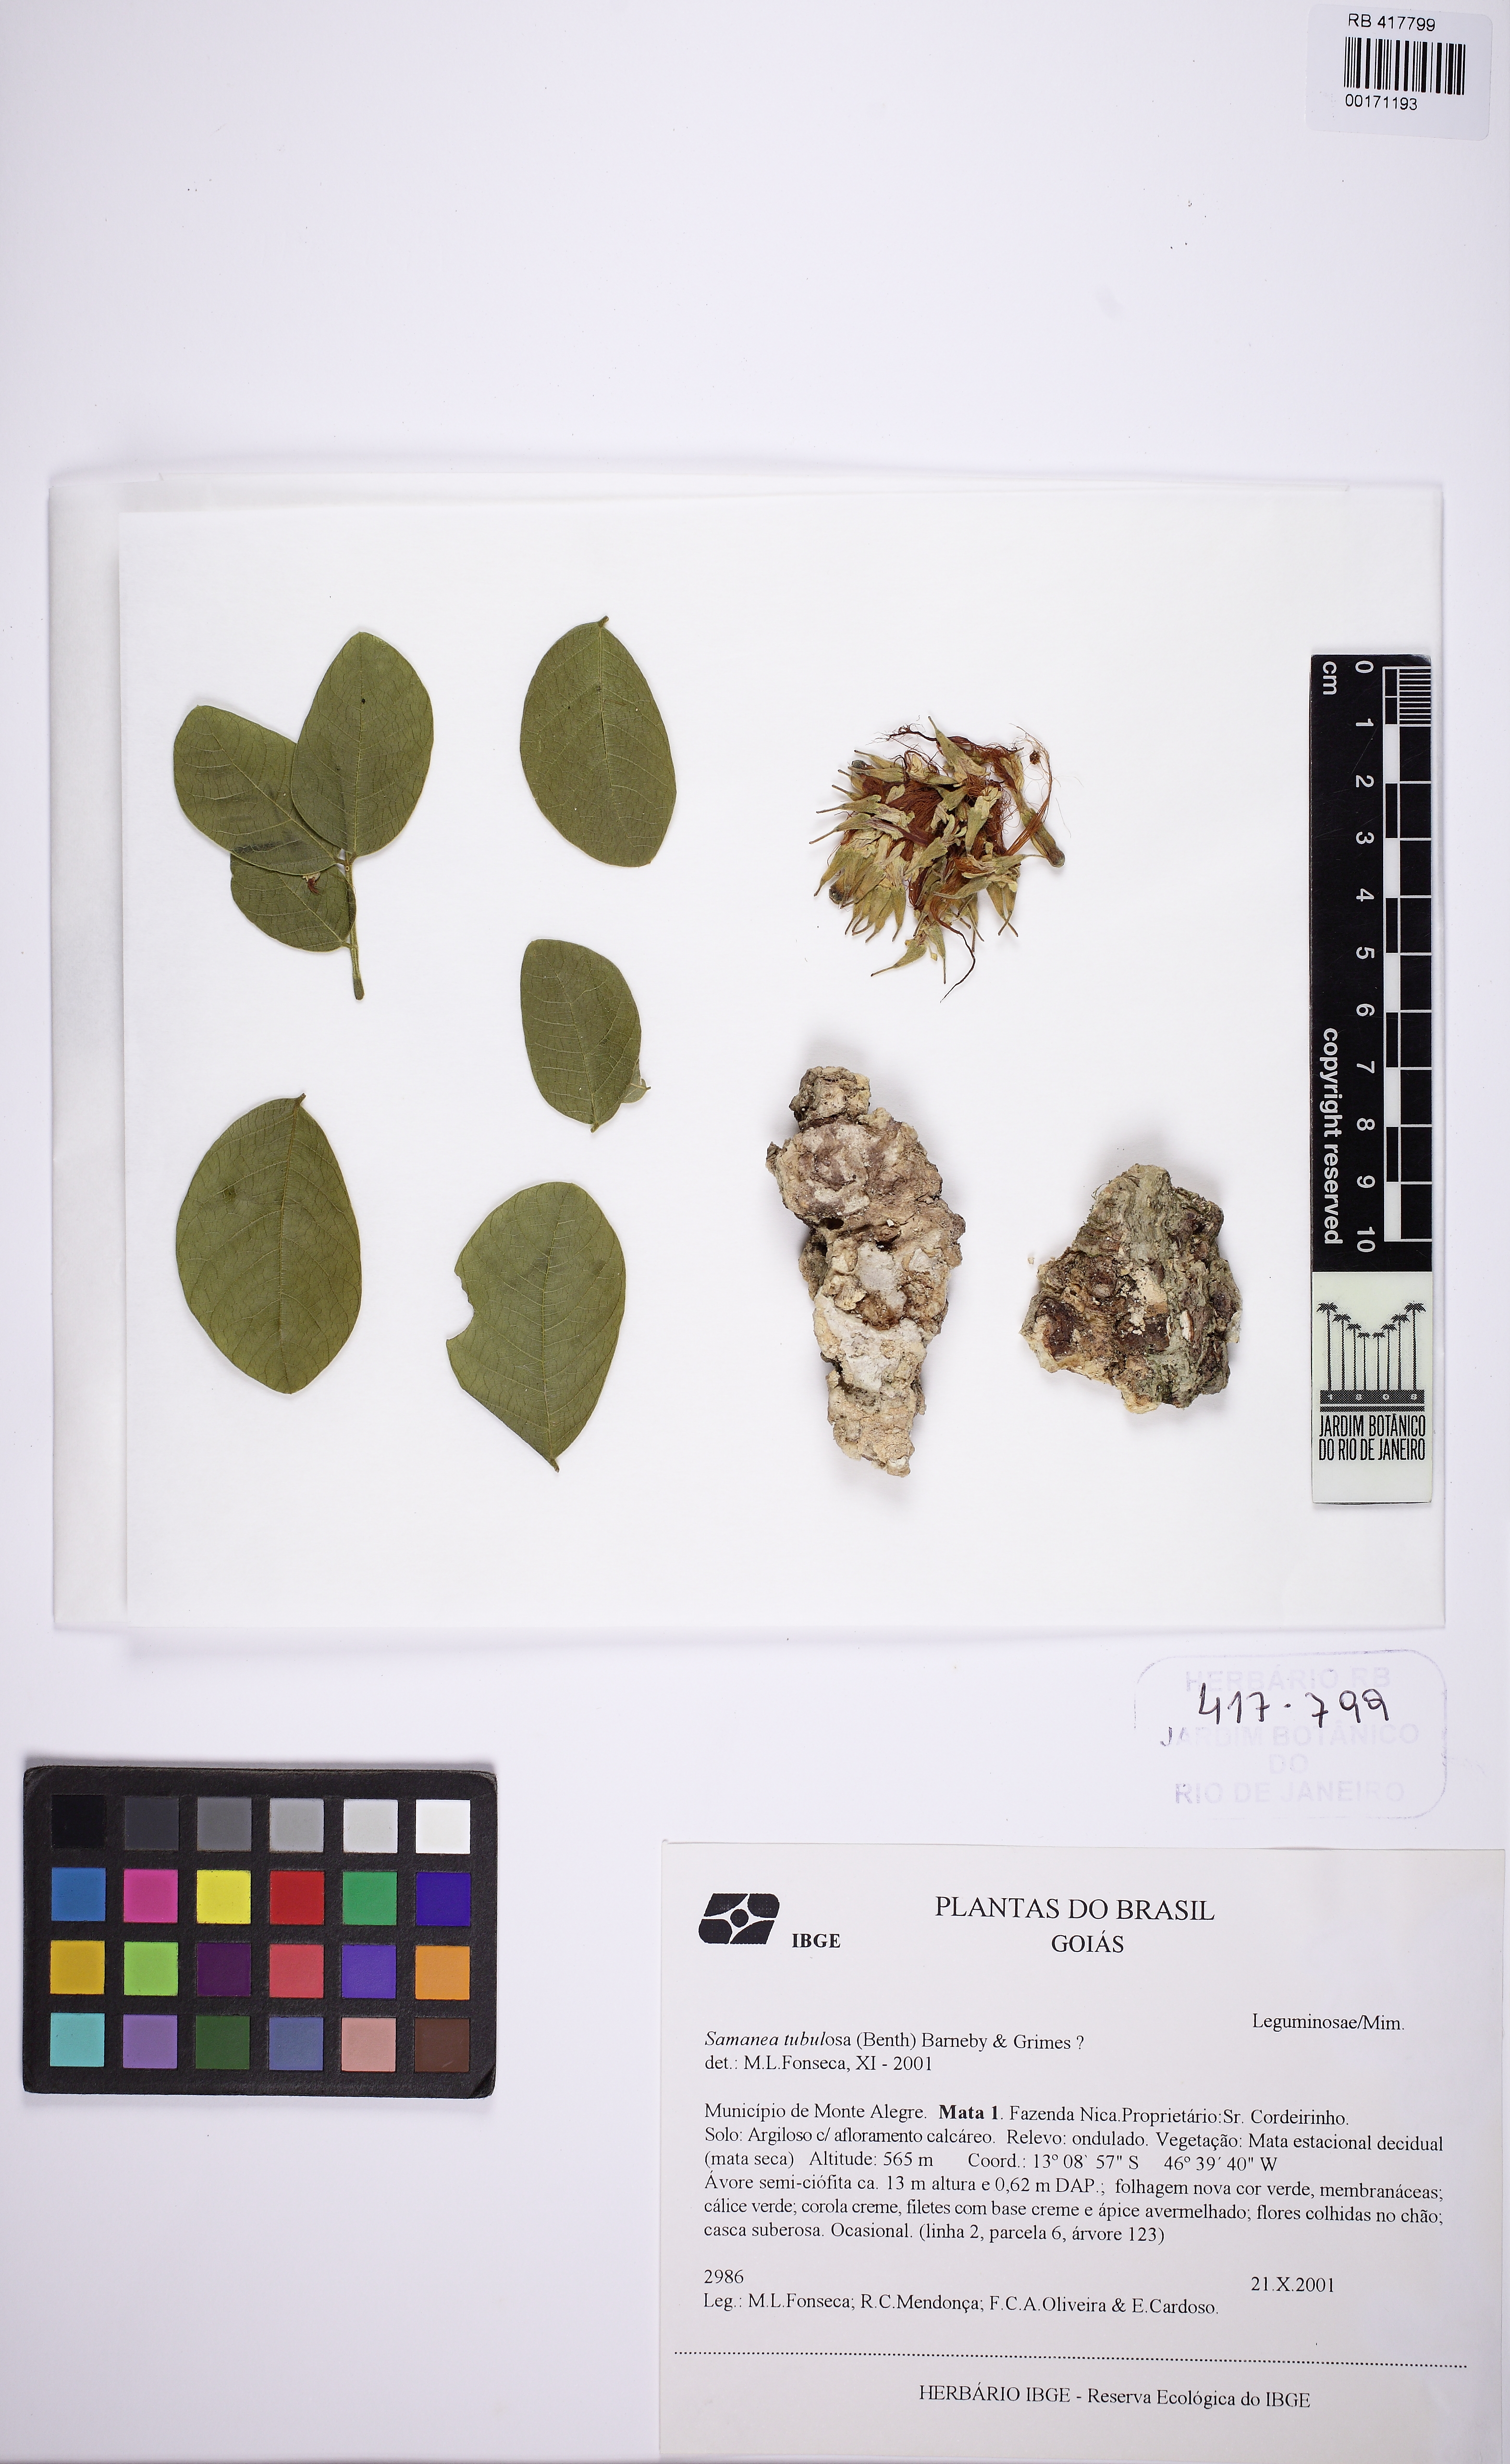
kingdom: Plantae
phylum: Tracheophyta
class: Magnoliopsida
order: Fabales
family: Fabaceae
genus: Samanea
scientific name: Samanea tubulosa
